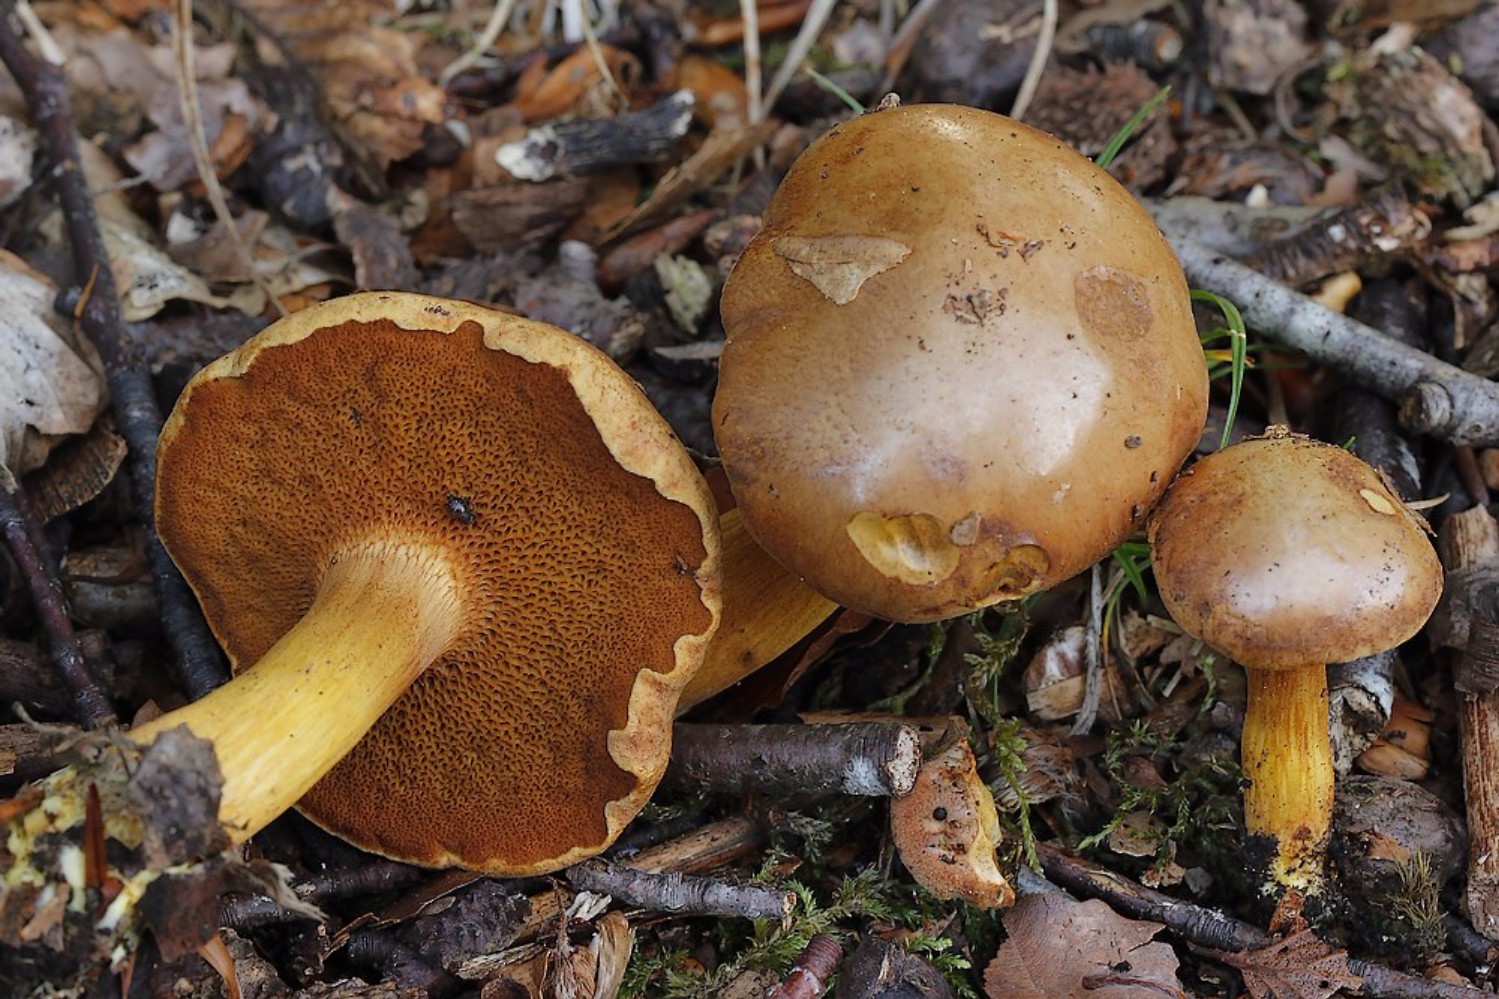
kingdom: Fungi
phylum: Basidiomycota
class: Agaricomycetes
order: Boletales
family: Boletaceae
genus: Chalciporus
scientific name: Chalciporus piperatus
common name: peberrørhat
